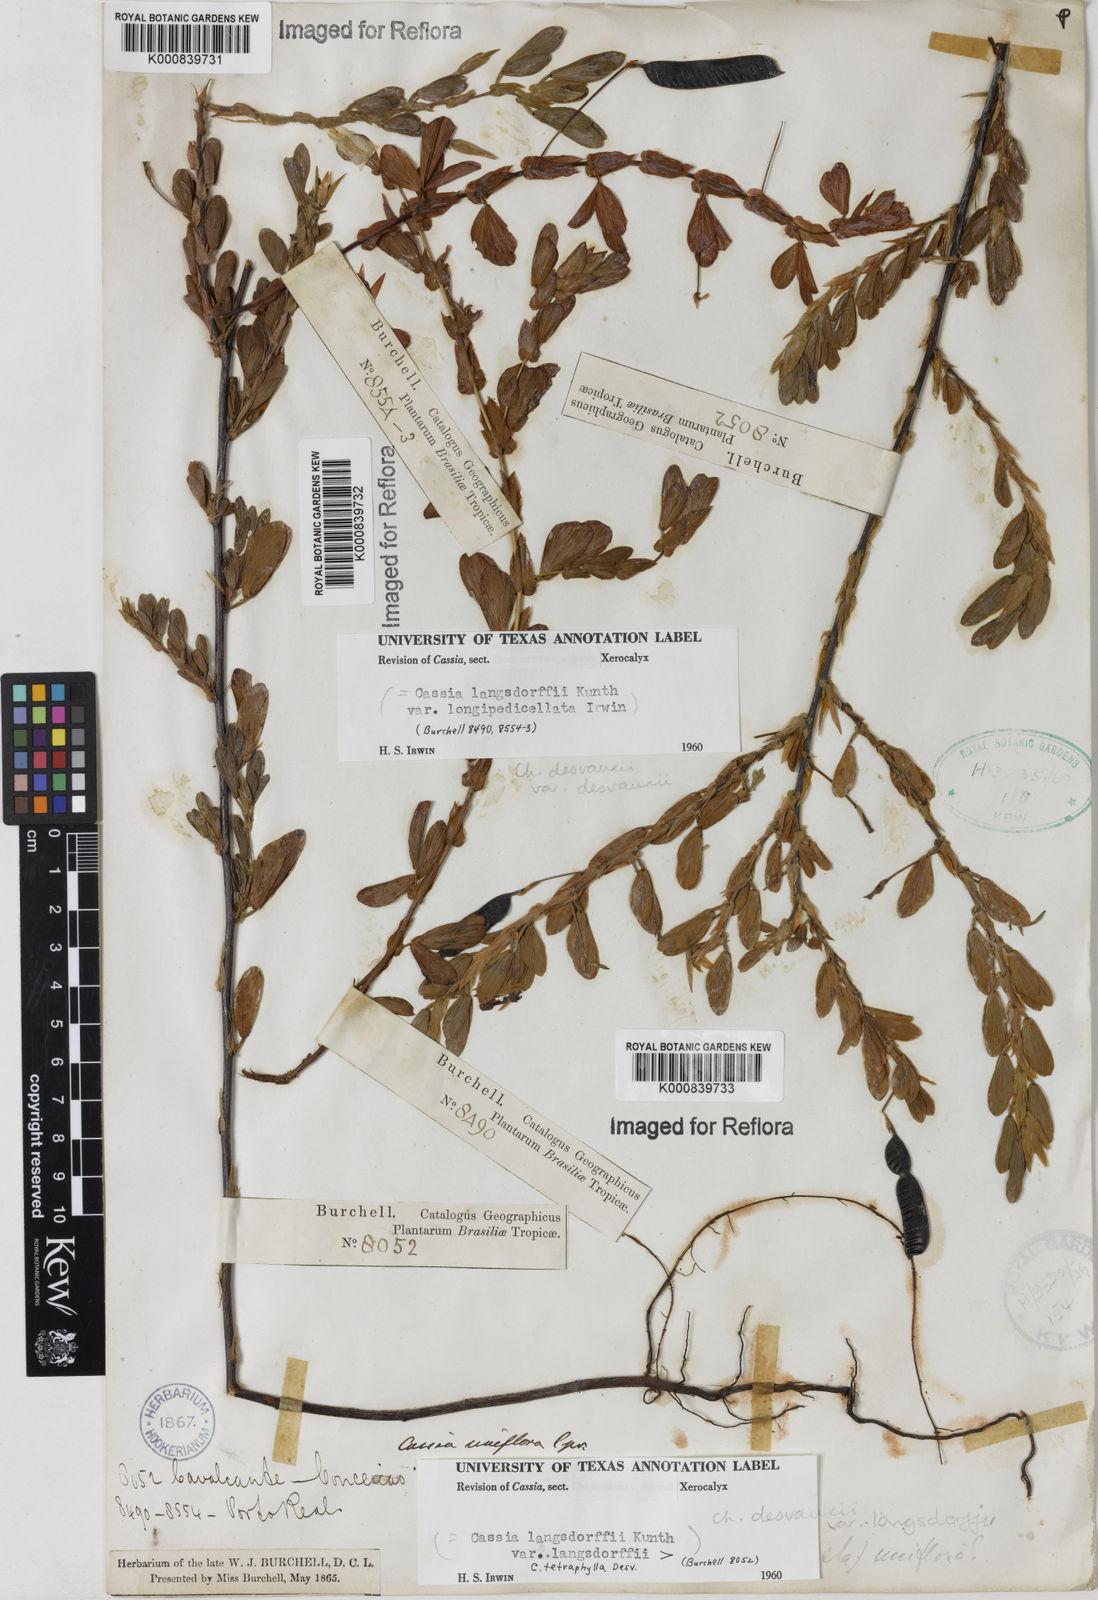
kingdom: Plantae
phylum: Tracheophyta
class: Magnoliopsida
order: Fabales
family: Fabaceae
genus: Chamaecrista
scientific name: Chamaecrista langsdorffii
